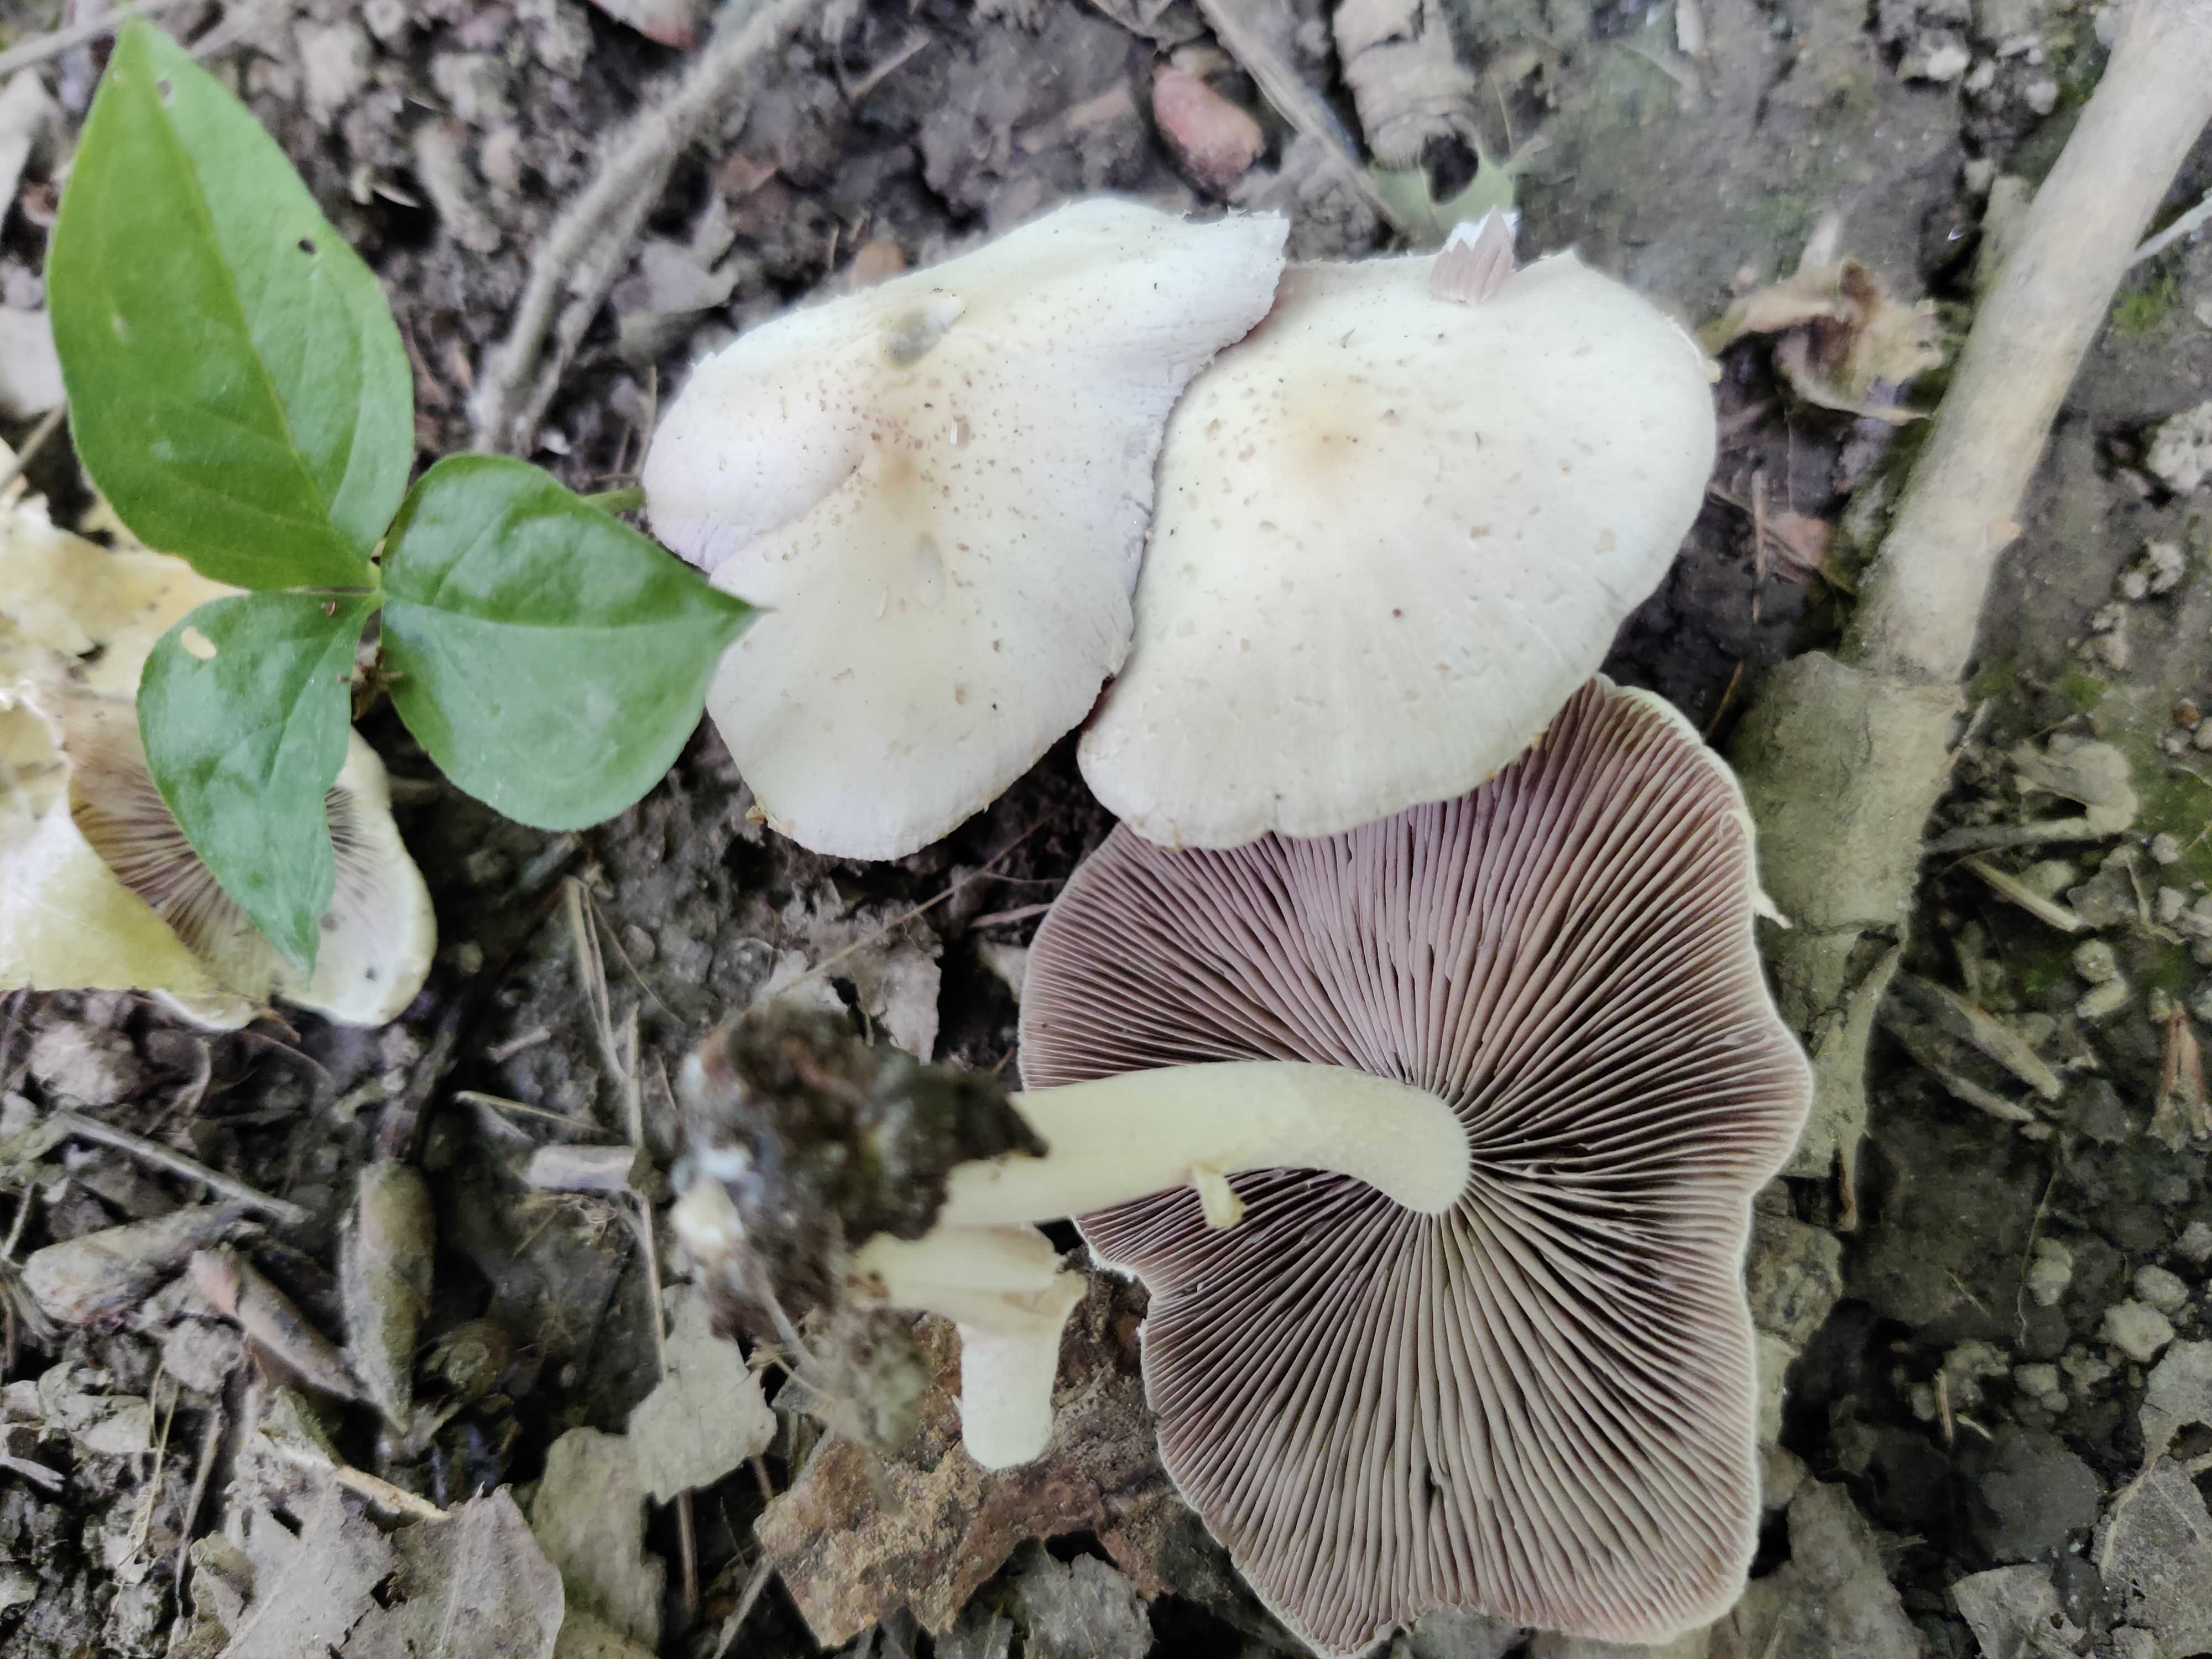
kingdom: Fungi
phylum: Basidiomycota
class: Agaricomycetes
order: Agaricales
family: Psathyrellaceae
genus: Candolleomyces
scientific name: Candolleomyces
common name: mørkhat
